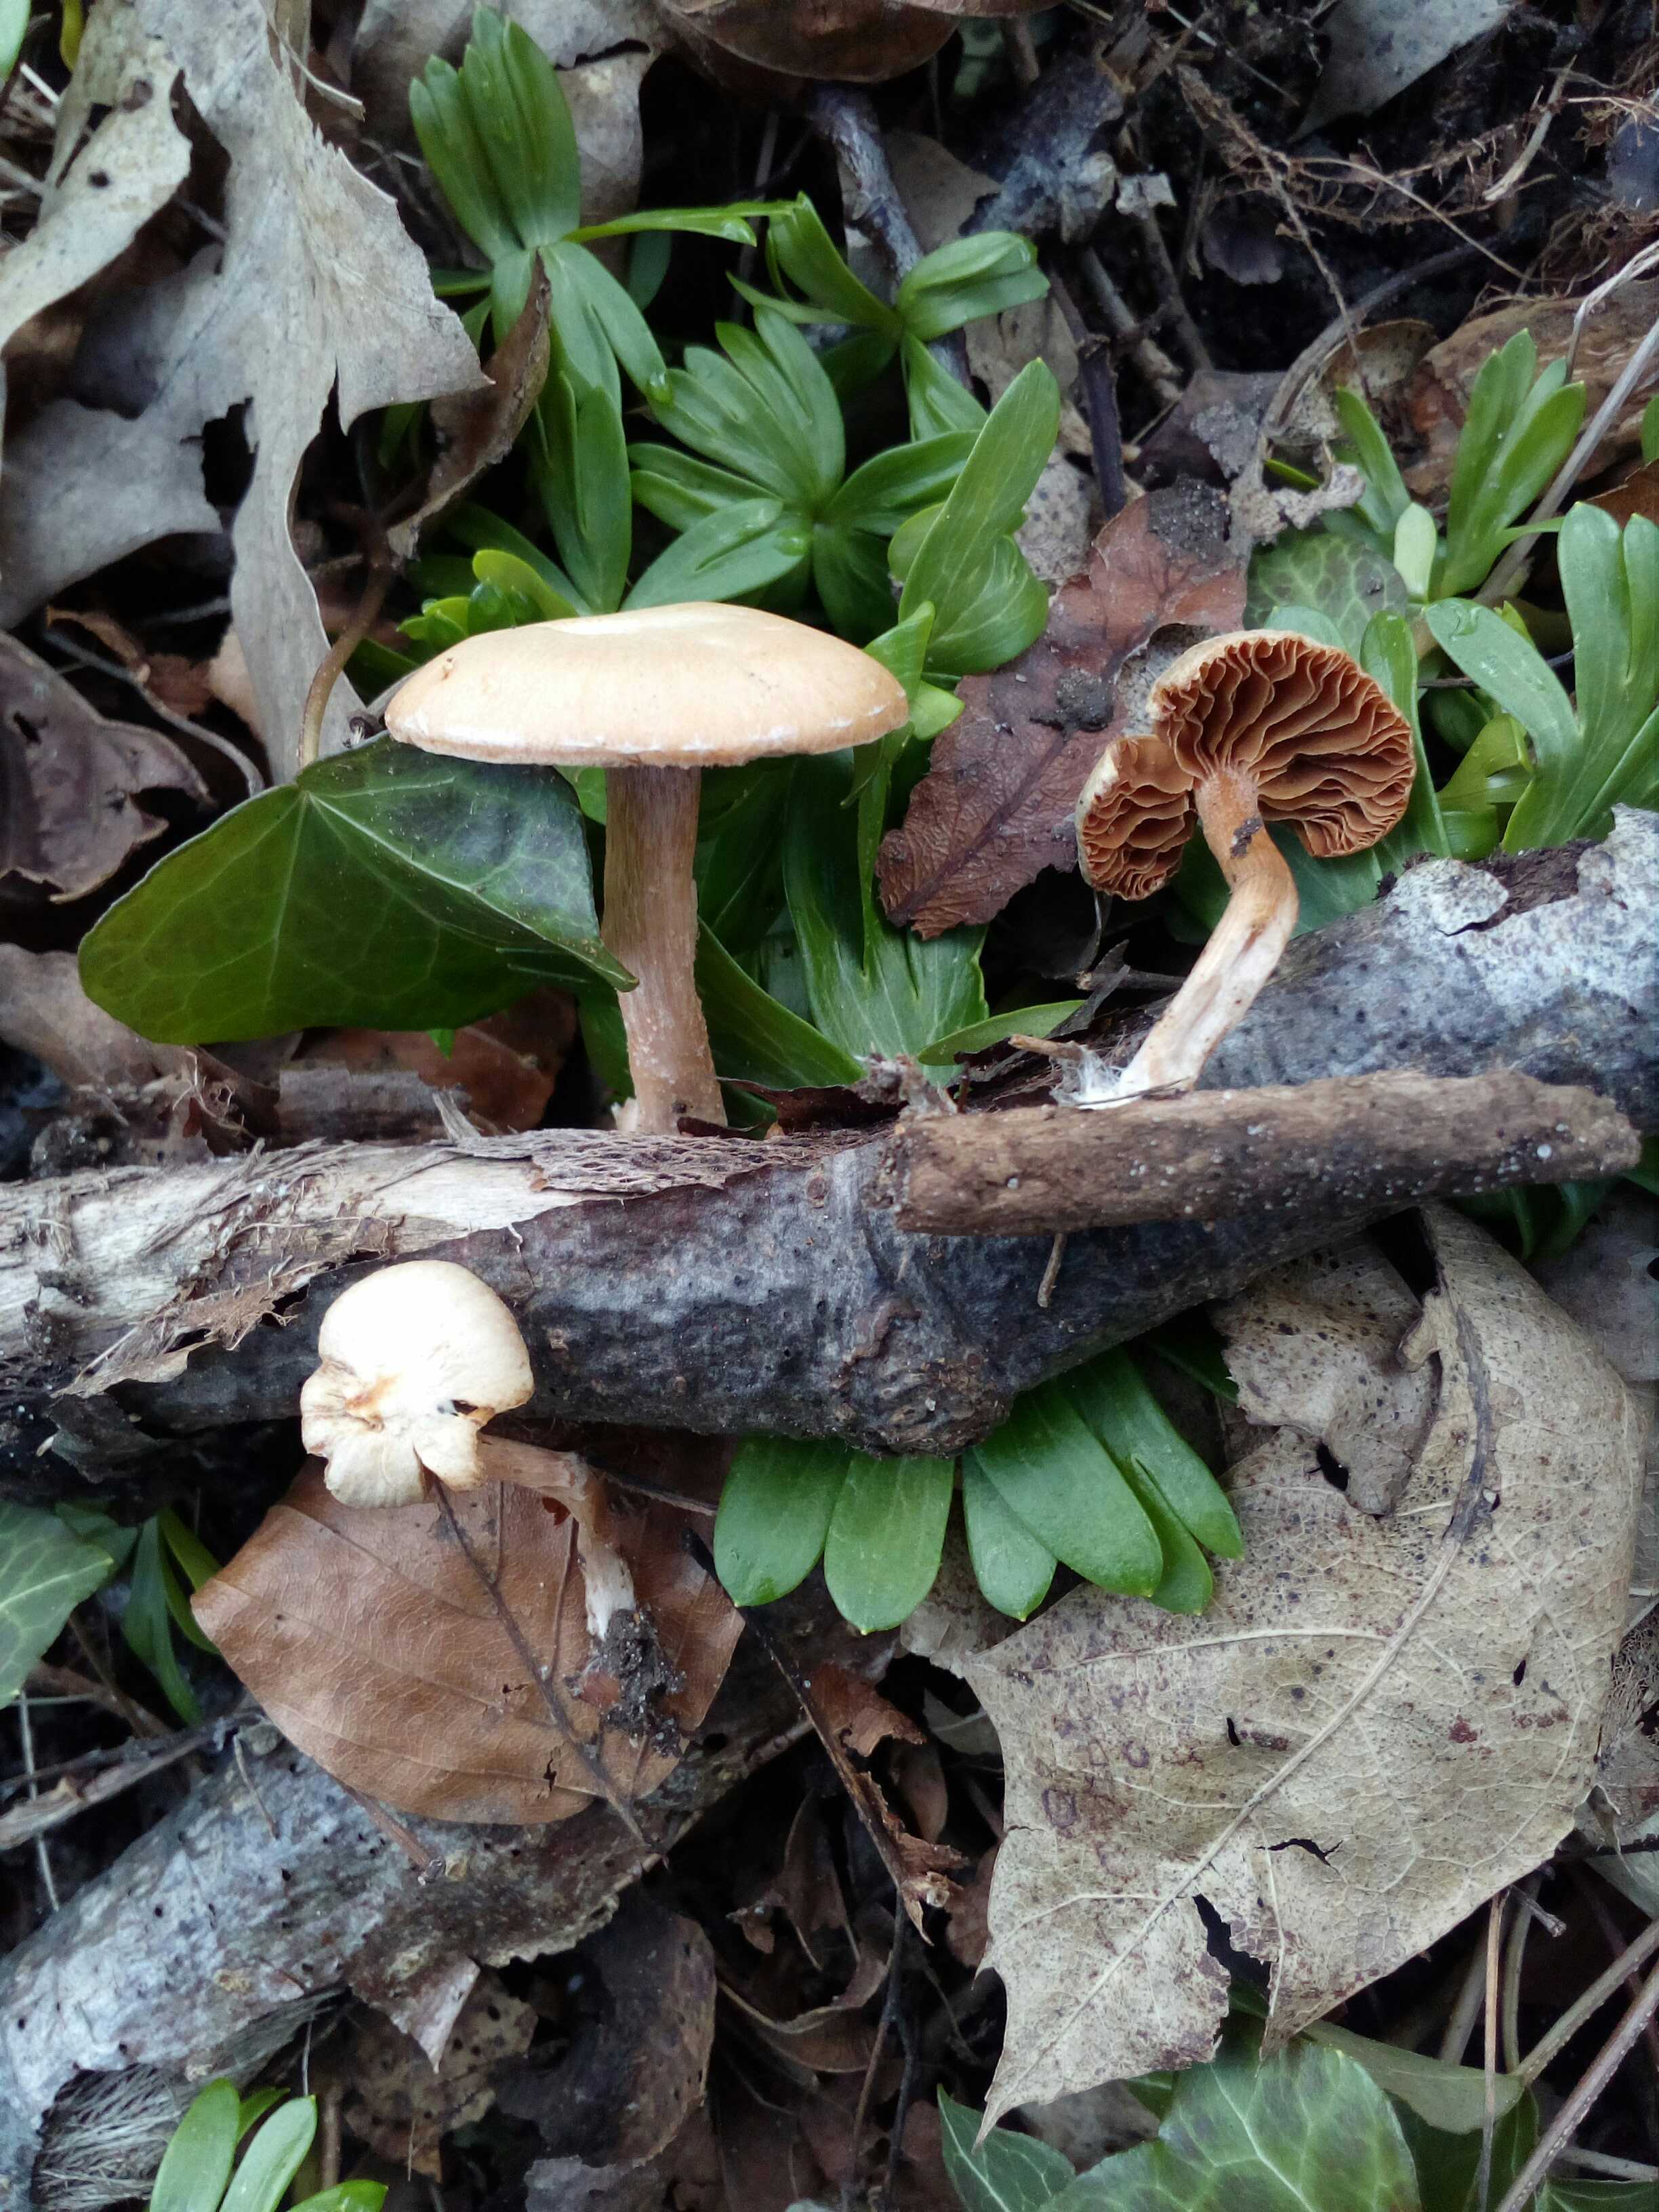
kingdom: Fungi
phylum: Basidiomycota
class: Agaricomycetes
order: Agaricales
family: Tubariaceae
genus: Tubaria
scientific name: Tubaria furfuracea
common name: kliddet fnughat
